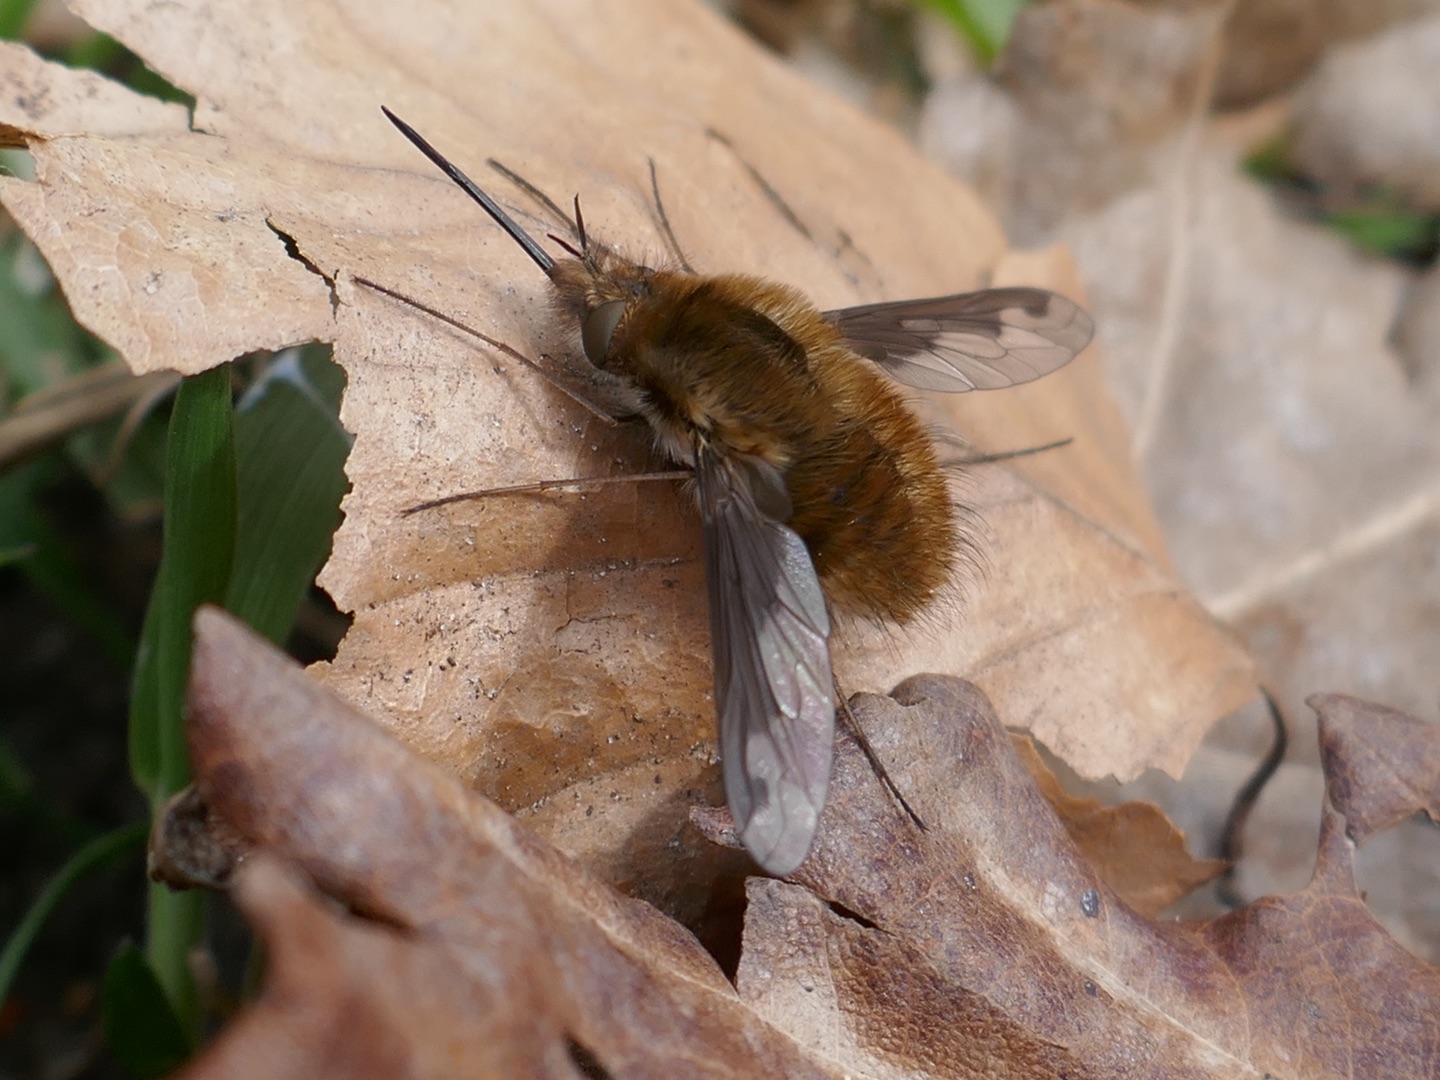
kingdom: Animalia
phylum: Arthropoda
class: Insecta
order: Diptera
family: Bombyliidae
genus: Bombylius
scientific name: Bombylius major
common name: Stor humleflue
